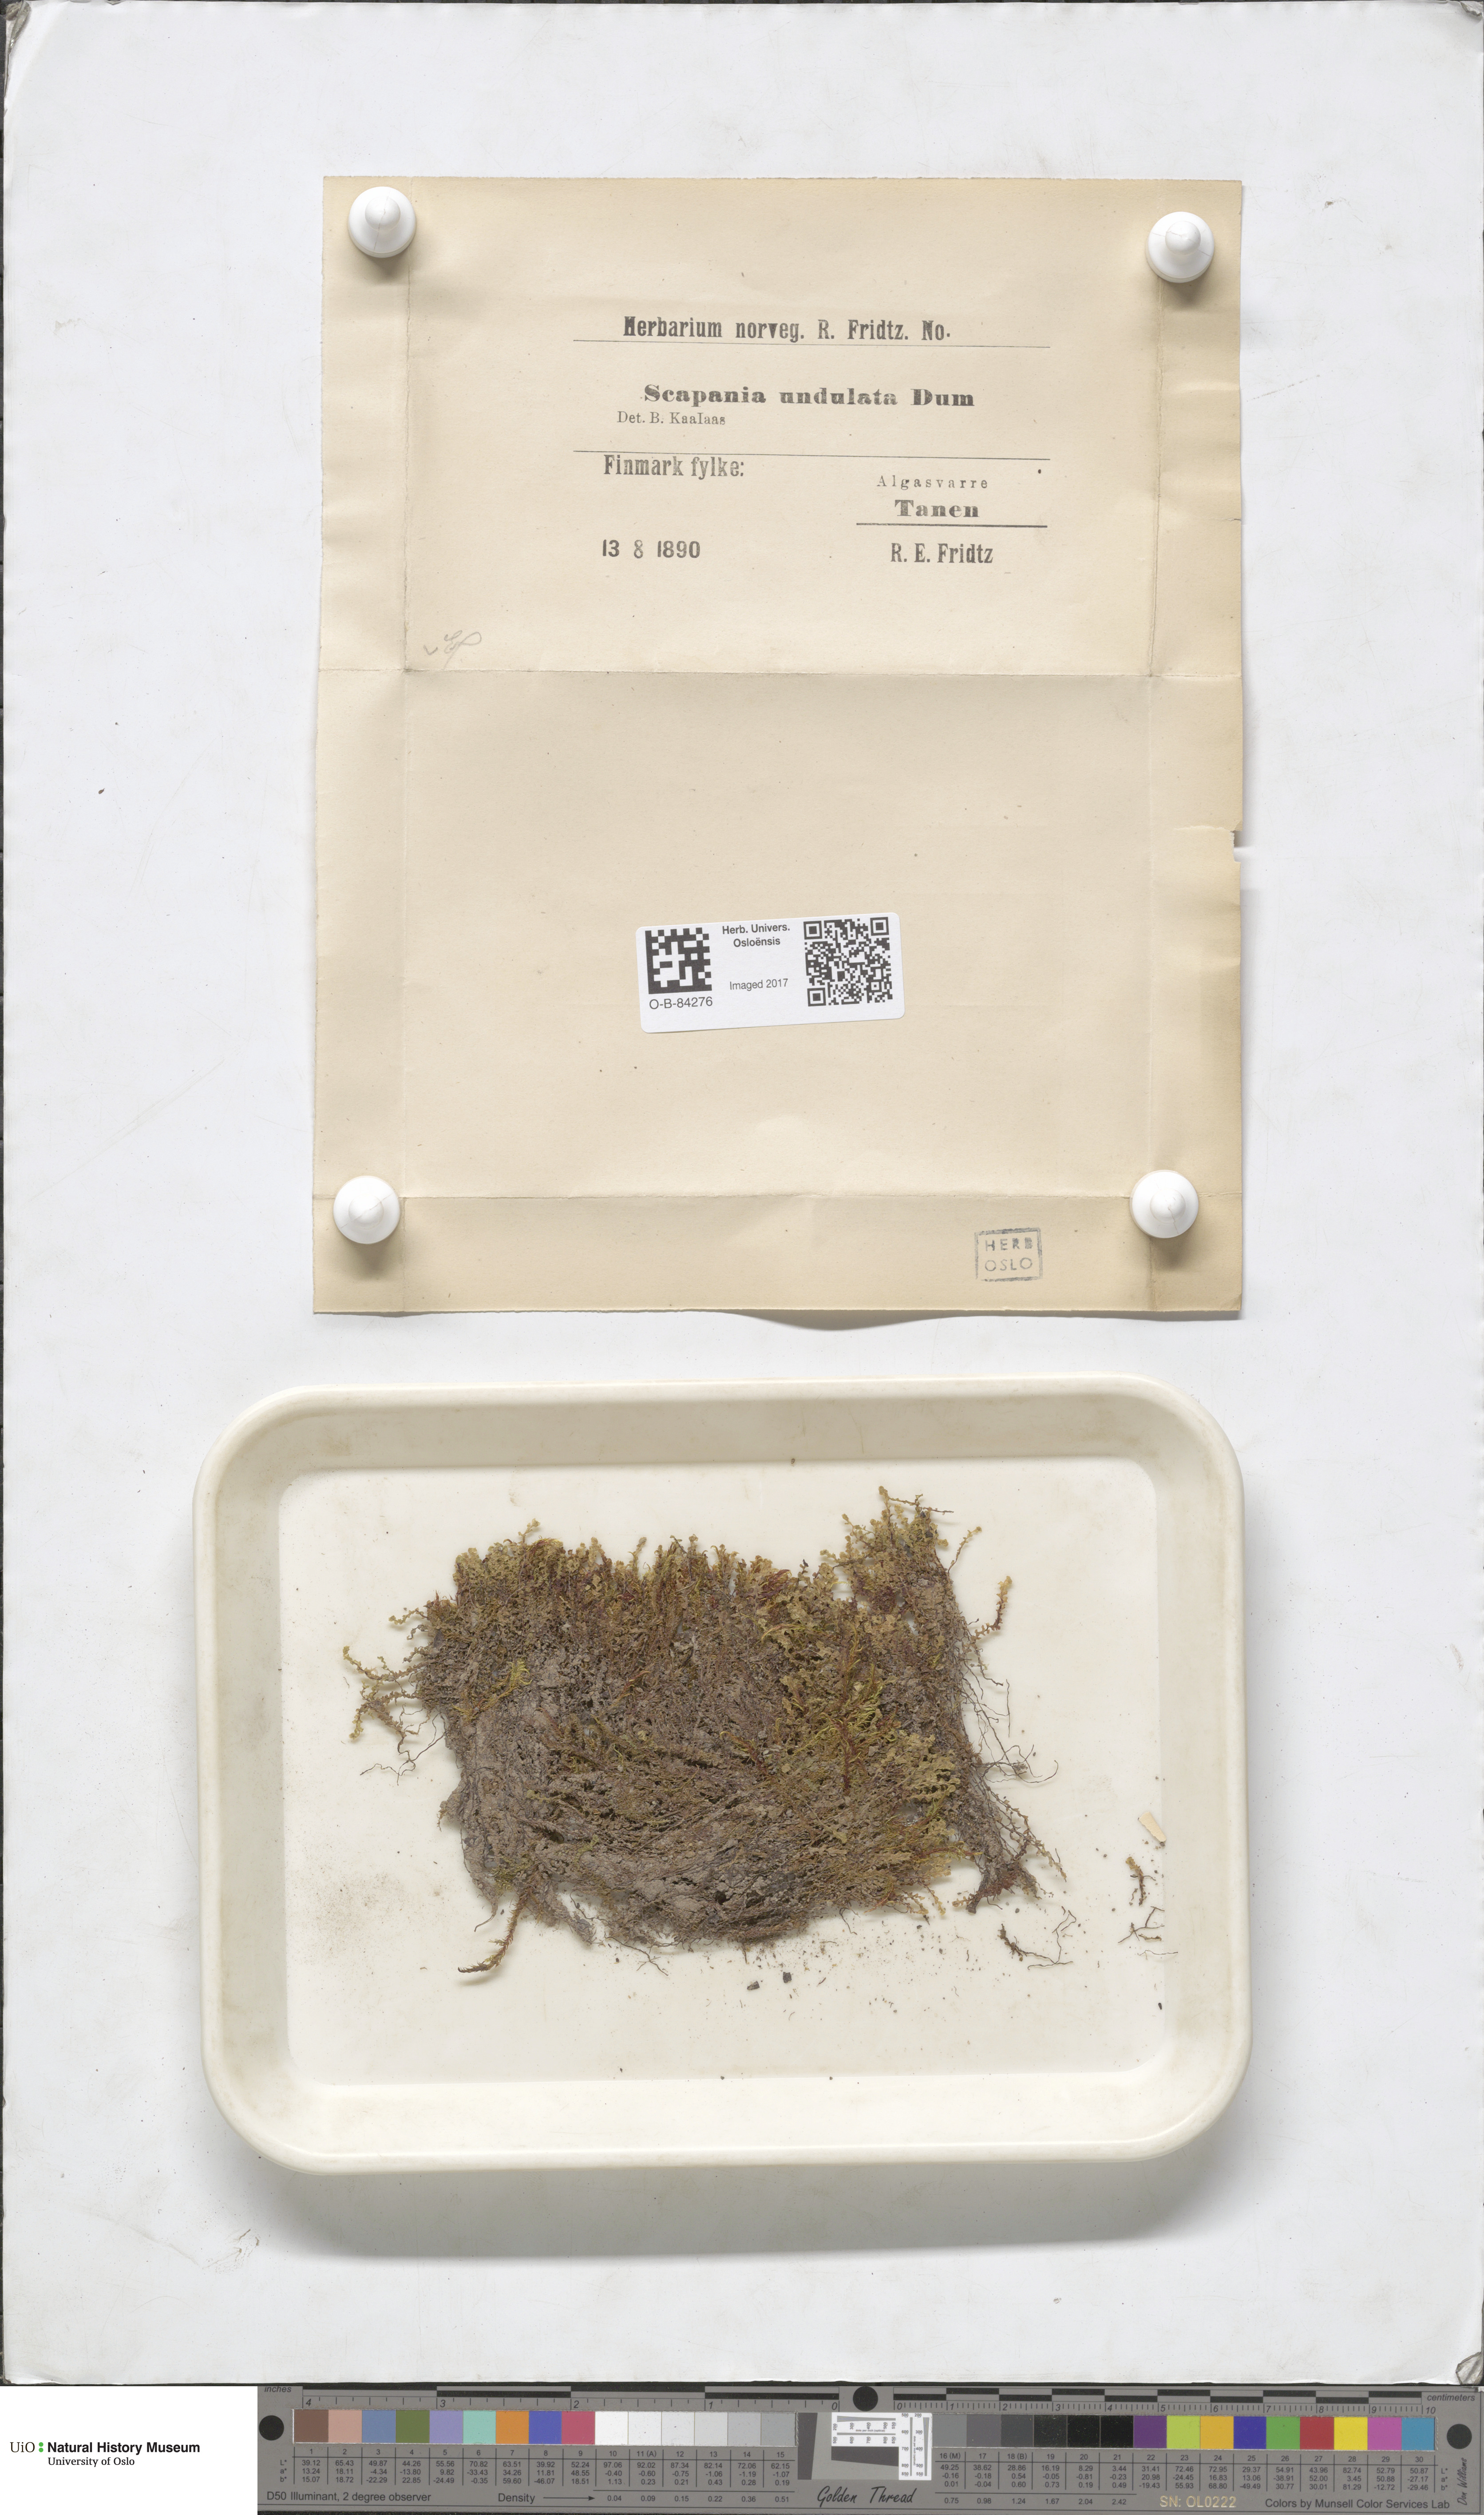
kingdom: Plantae
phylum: Marchantiophyta
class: Jungermanniopsida
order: Jungermanniales
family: Scapaniaceae
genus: Scapania
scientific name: Scapania undulata
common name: Water earwort
